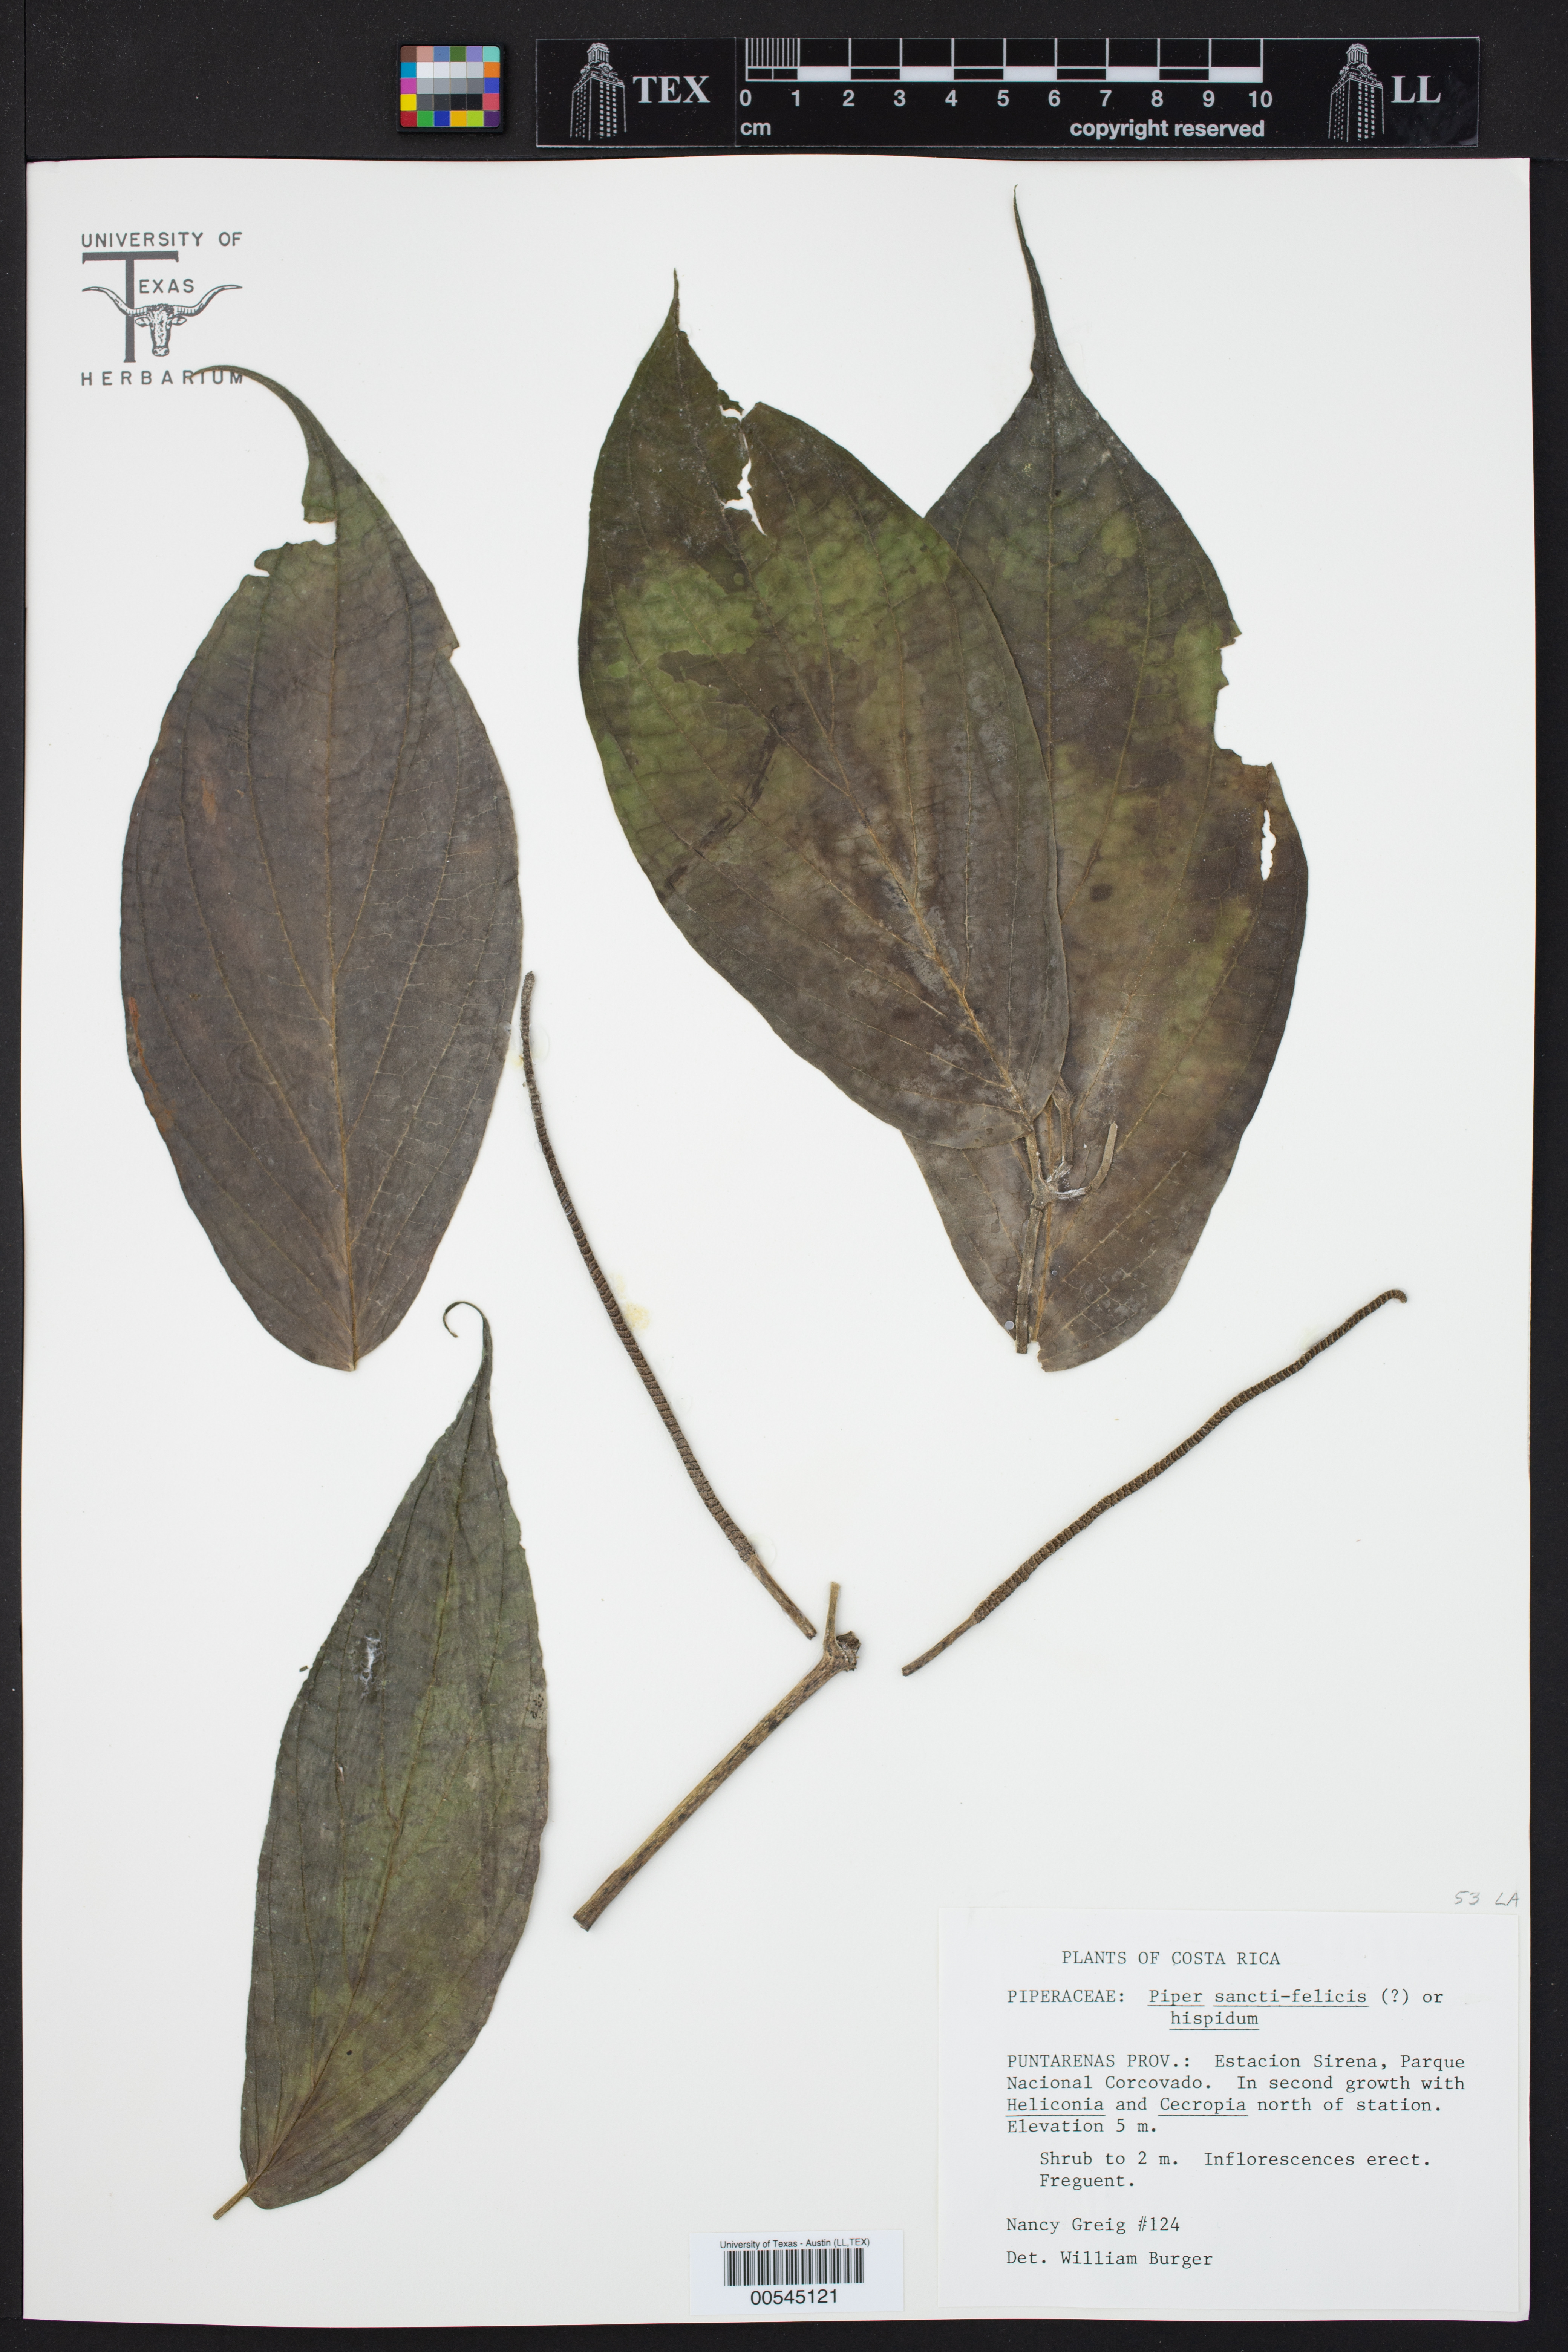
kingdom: Plantae
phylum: Tracheophyta
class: Magnoliopsida
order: Piperales
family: Piperaceae
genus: Piper
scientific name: Piper sancti-felicis
